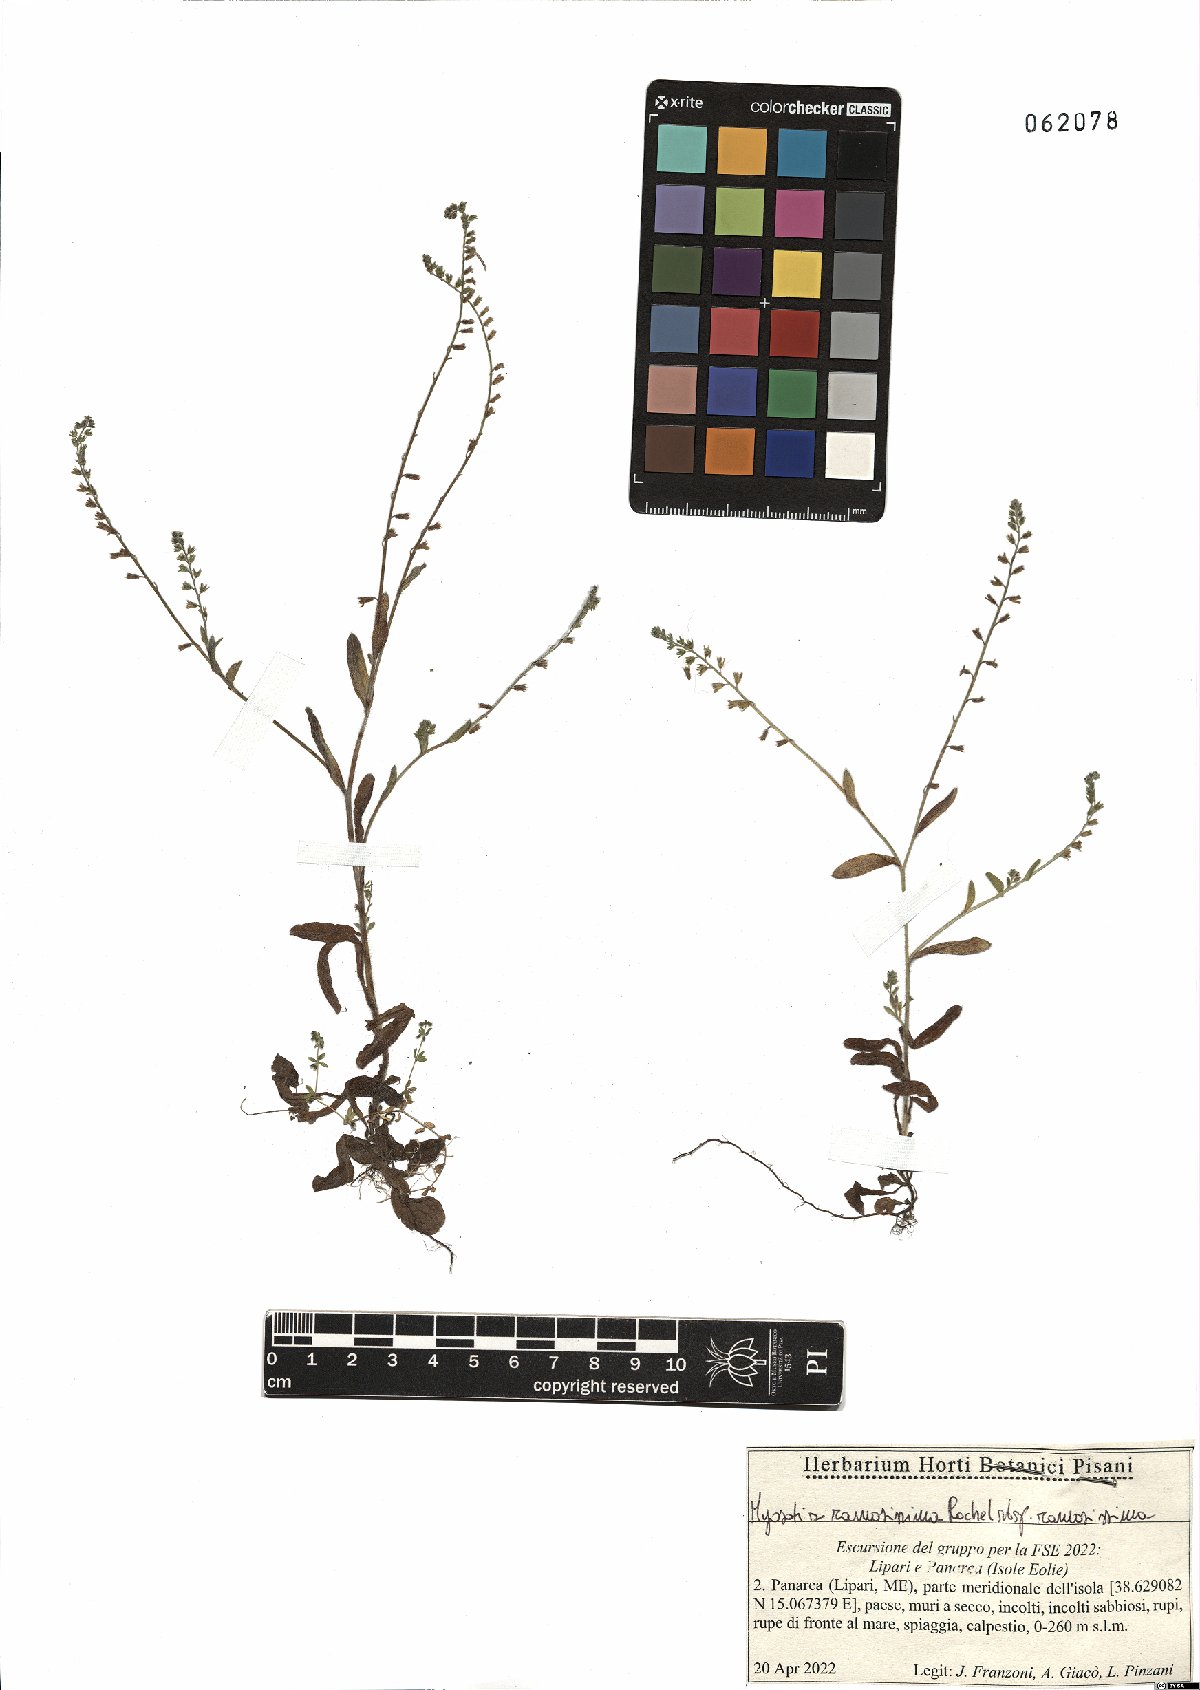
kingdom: Plantae
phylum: Tracheophyta
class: Magnoliopsida
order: Boraginales
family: Boraginaceae
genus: Myosotis
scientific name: Myosotis ramosissima
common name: Early forget-me-not
